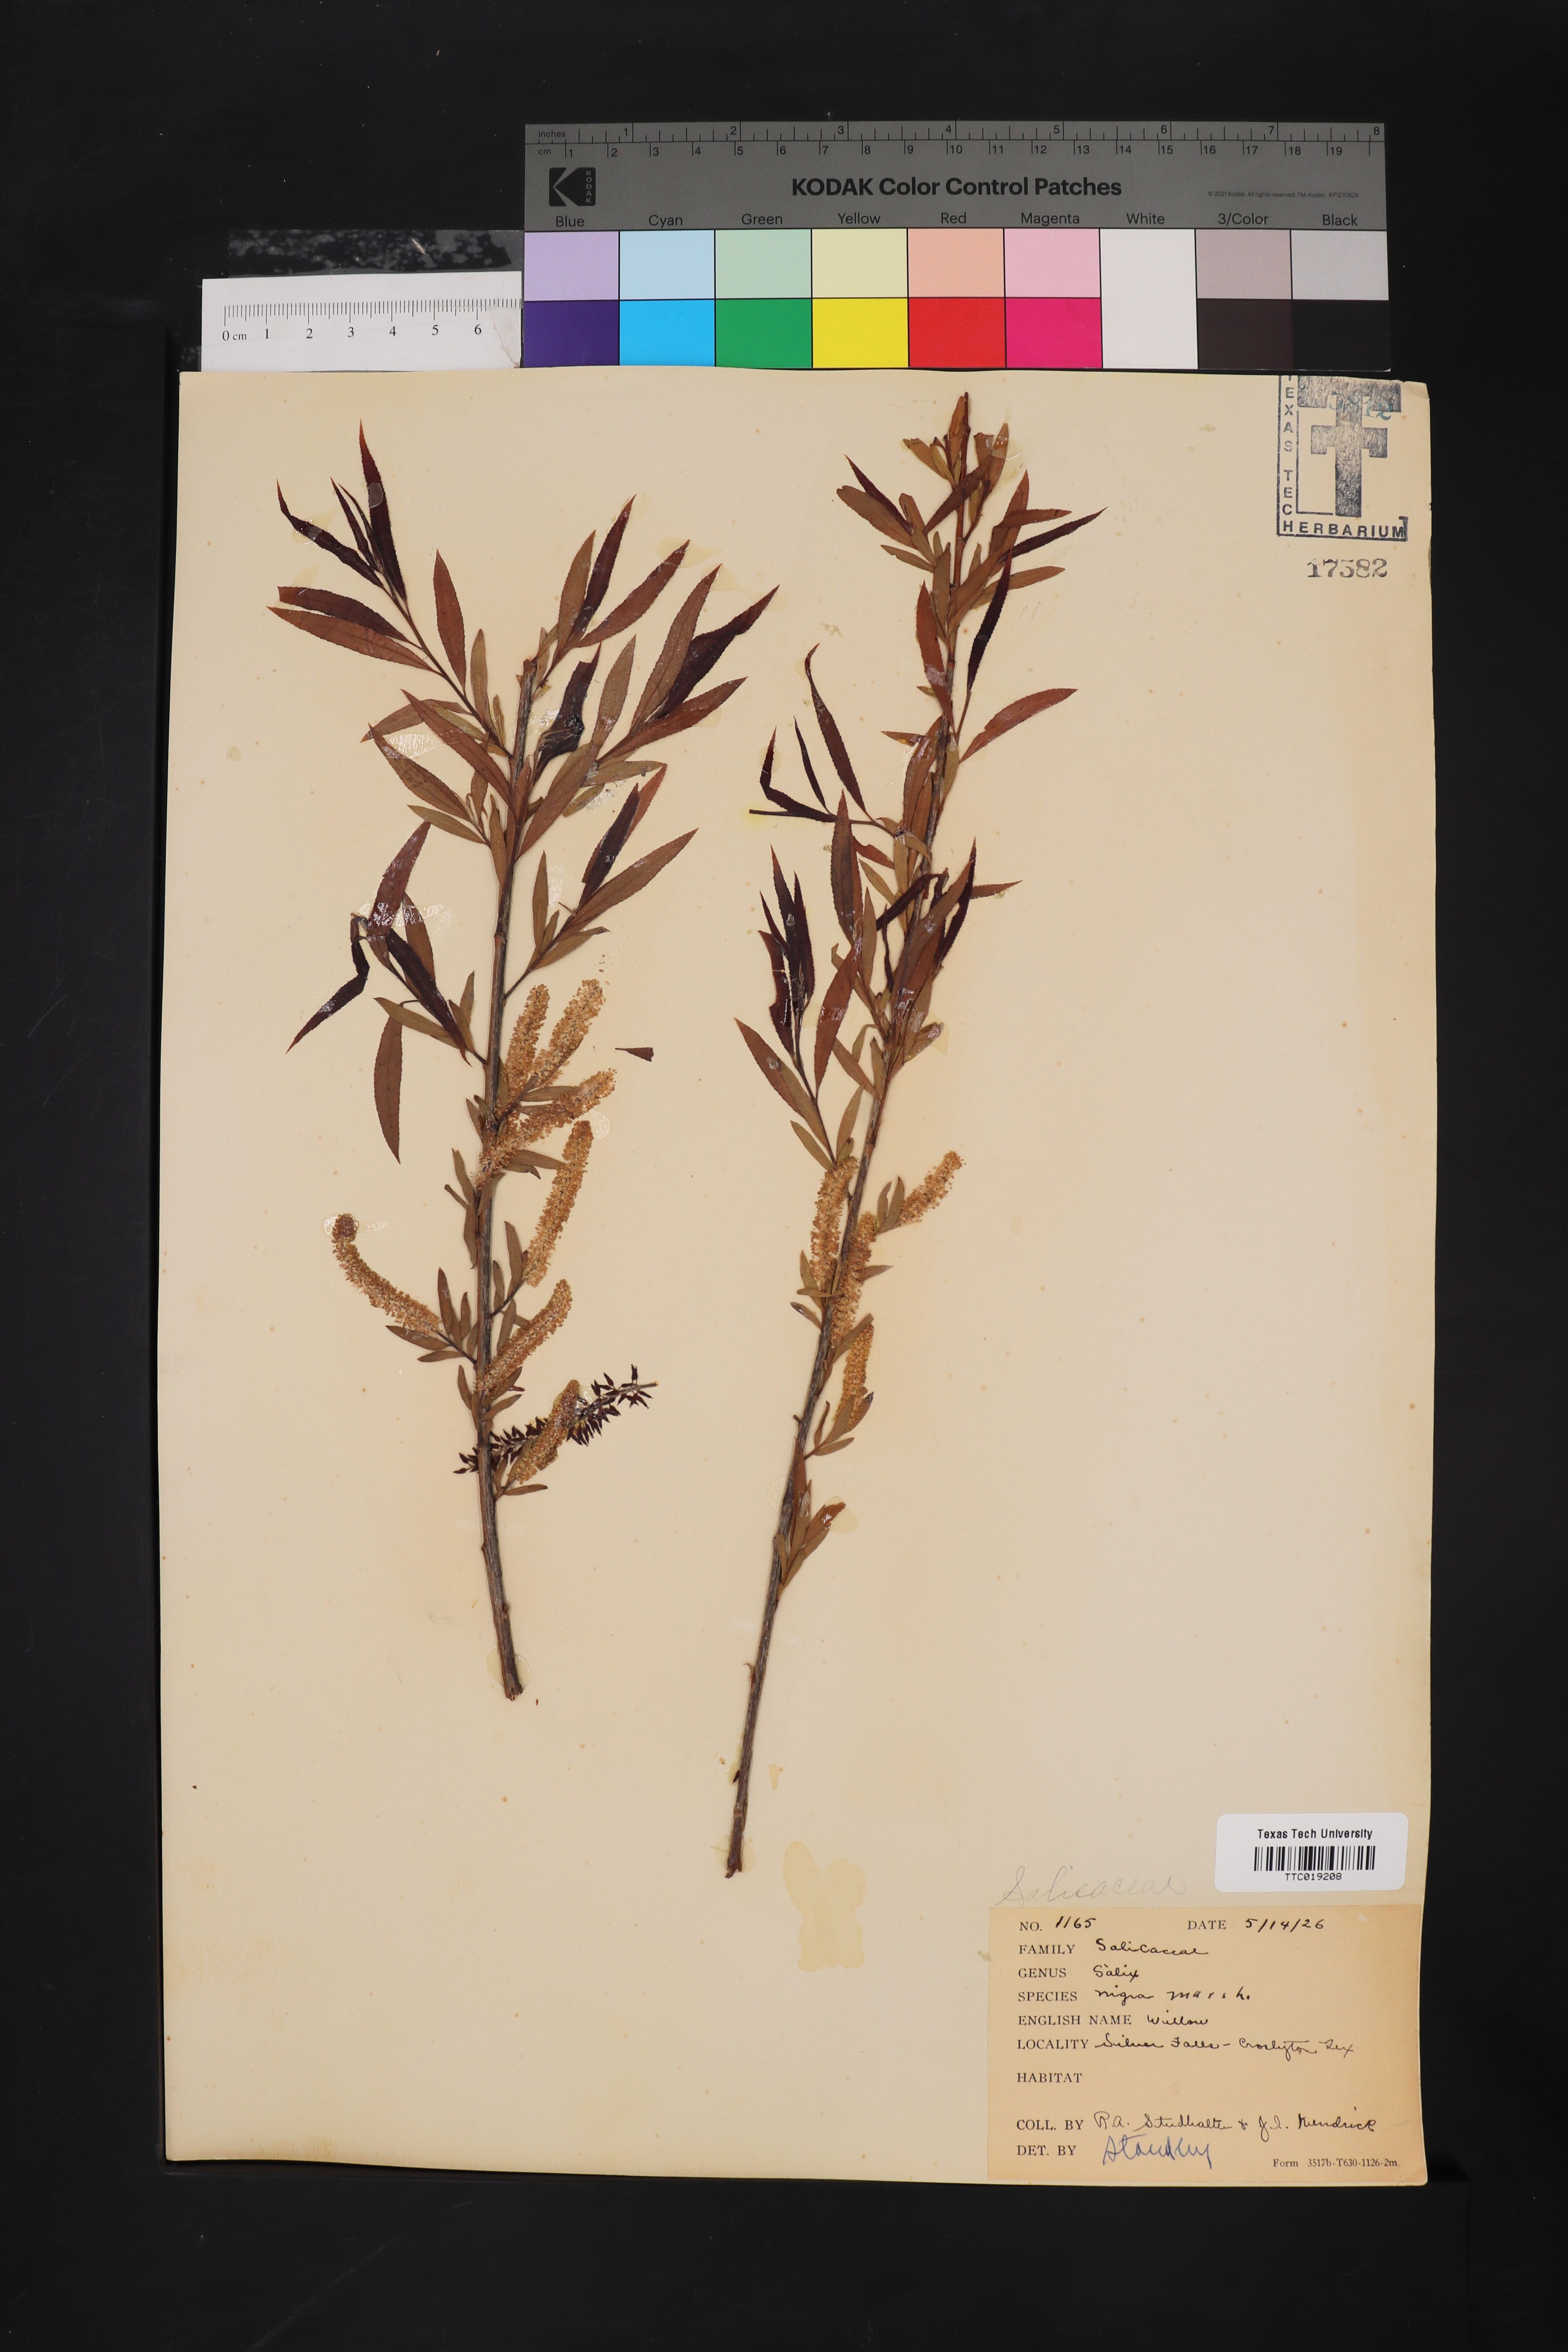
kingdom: Plantae
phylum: Tracheophyta
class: Magnoliopsida
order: Malpighiales
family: Salicaceae
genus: Salix
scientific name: Salix nigra
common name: Black willow
